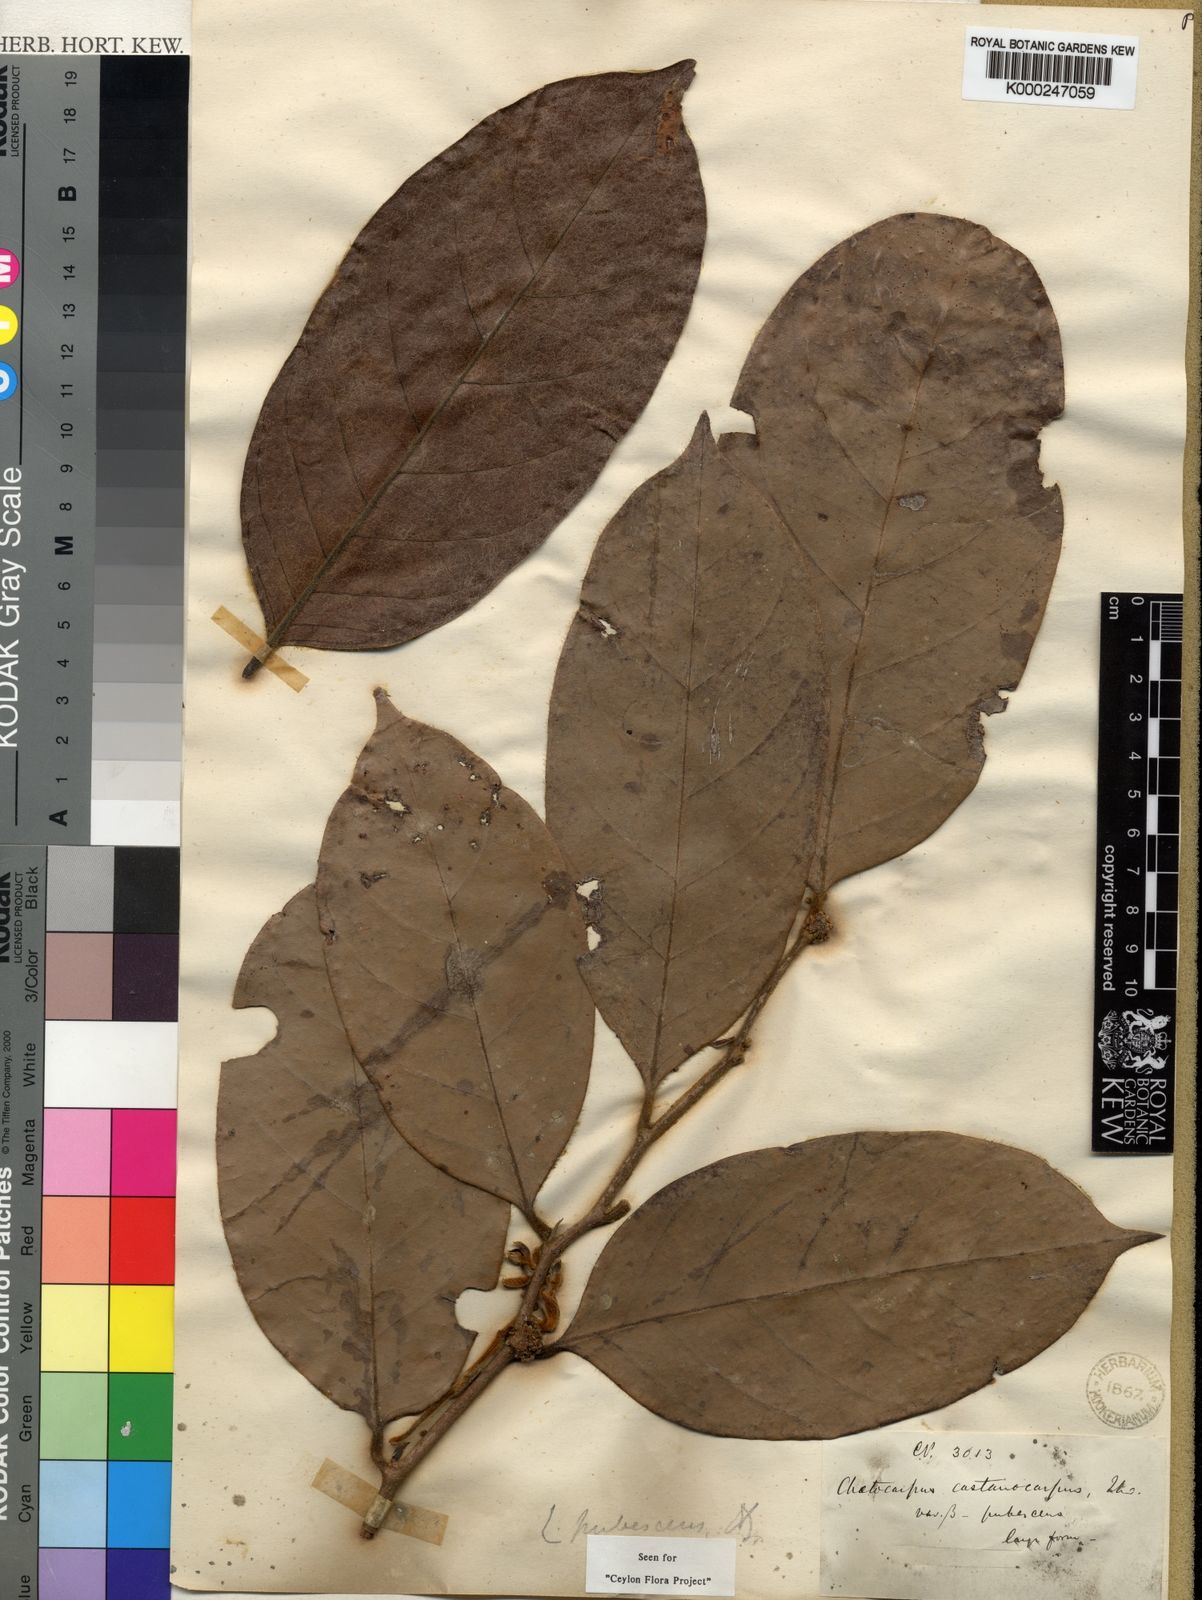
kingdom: Plantae
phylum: Tracheophyta
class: Magnoliopsida
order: Malpighiales
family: Peraceae
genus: Chaetocarpus
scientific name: Chaetocarpus pubescens
